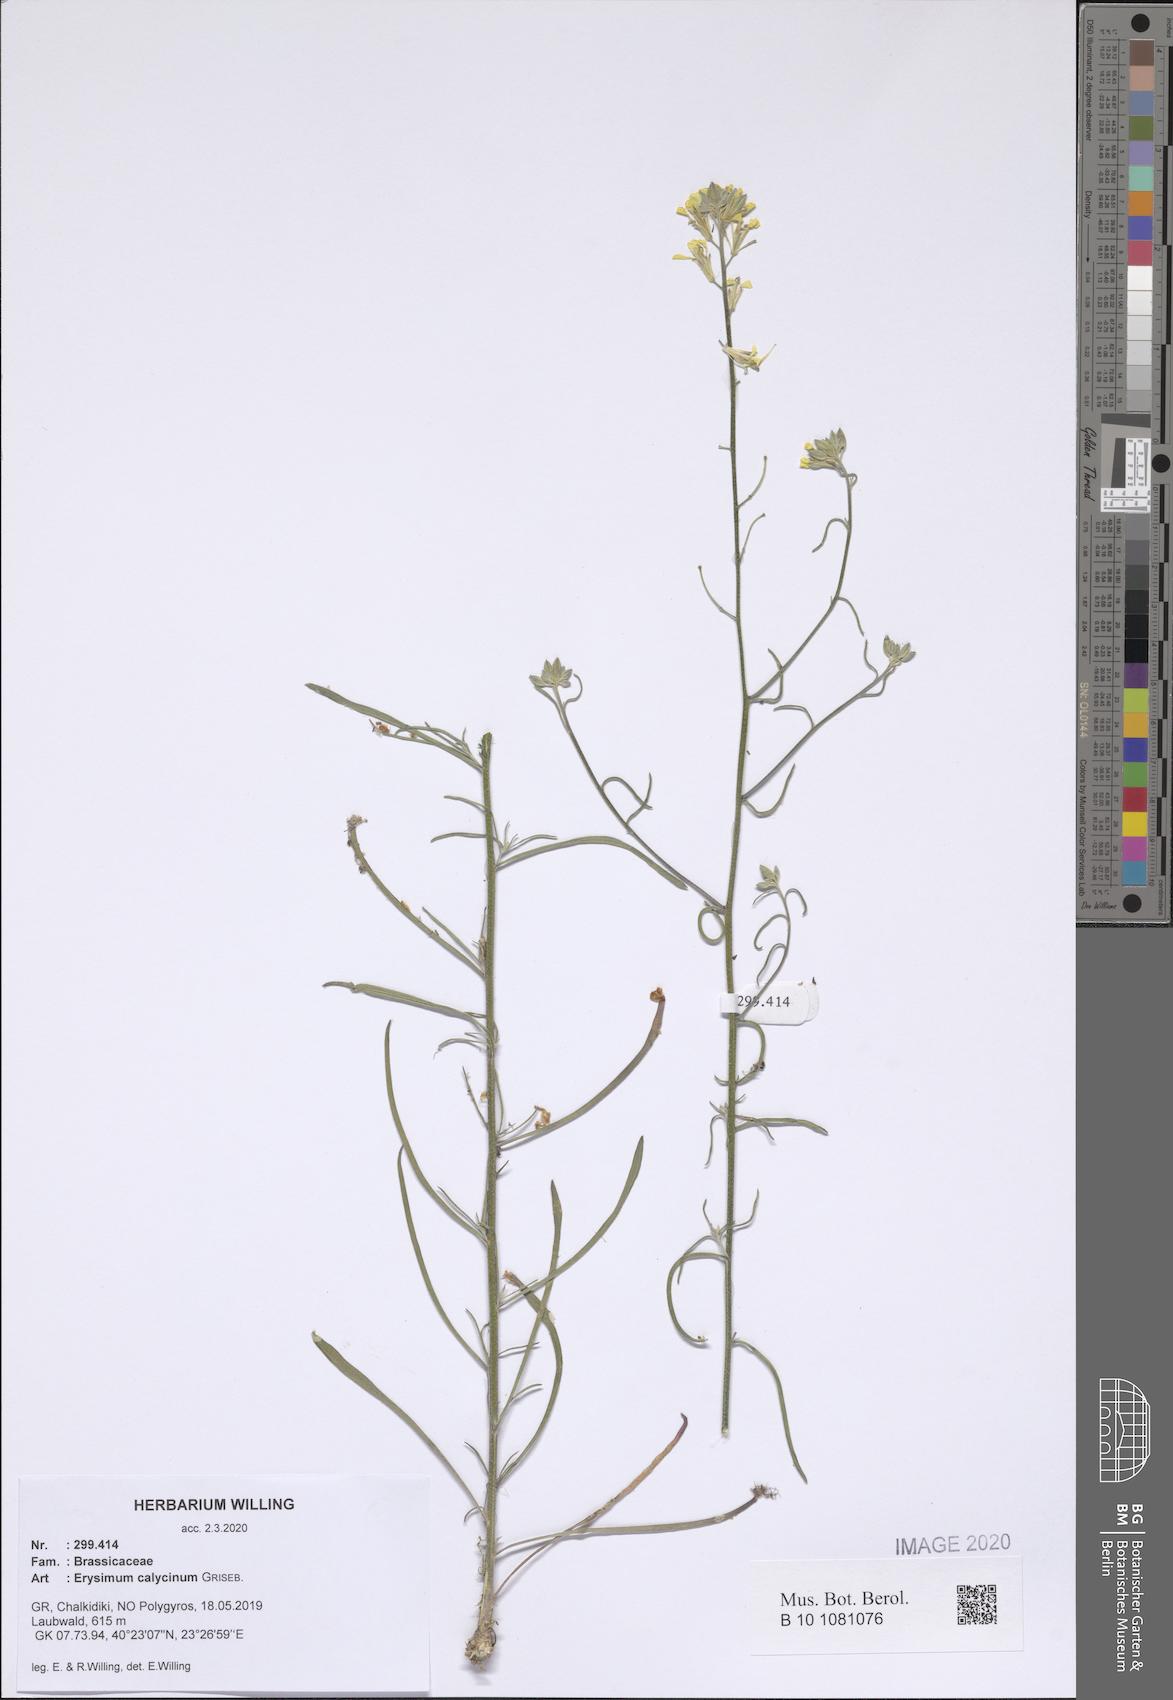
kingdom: Plantae
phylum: Tracheophyta
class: Magnoliopsida
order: Brassicales
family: Brassicaceae
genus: Erysimum
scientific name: Erysimum calycinum
